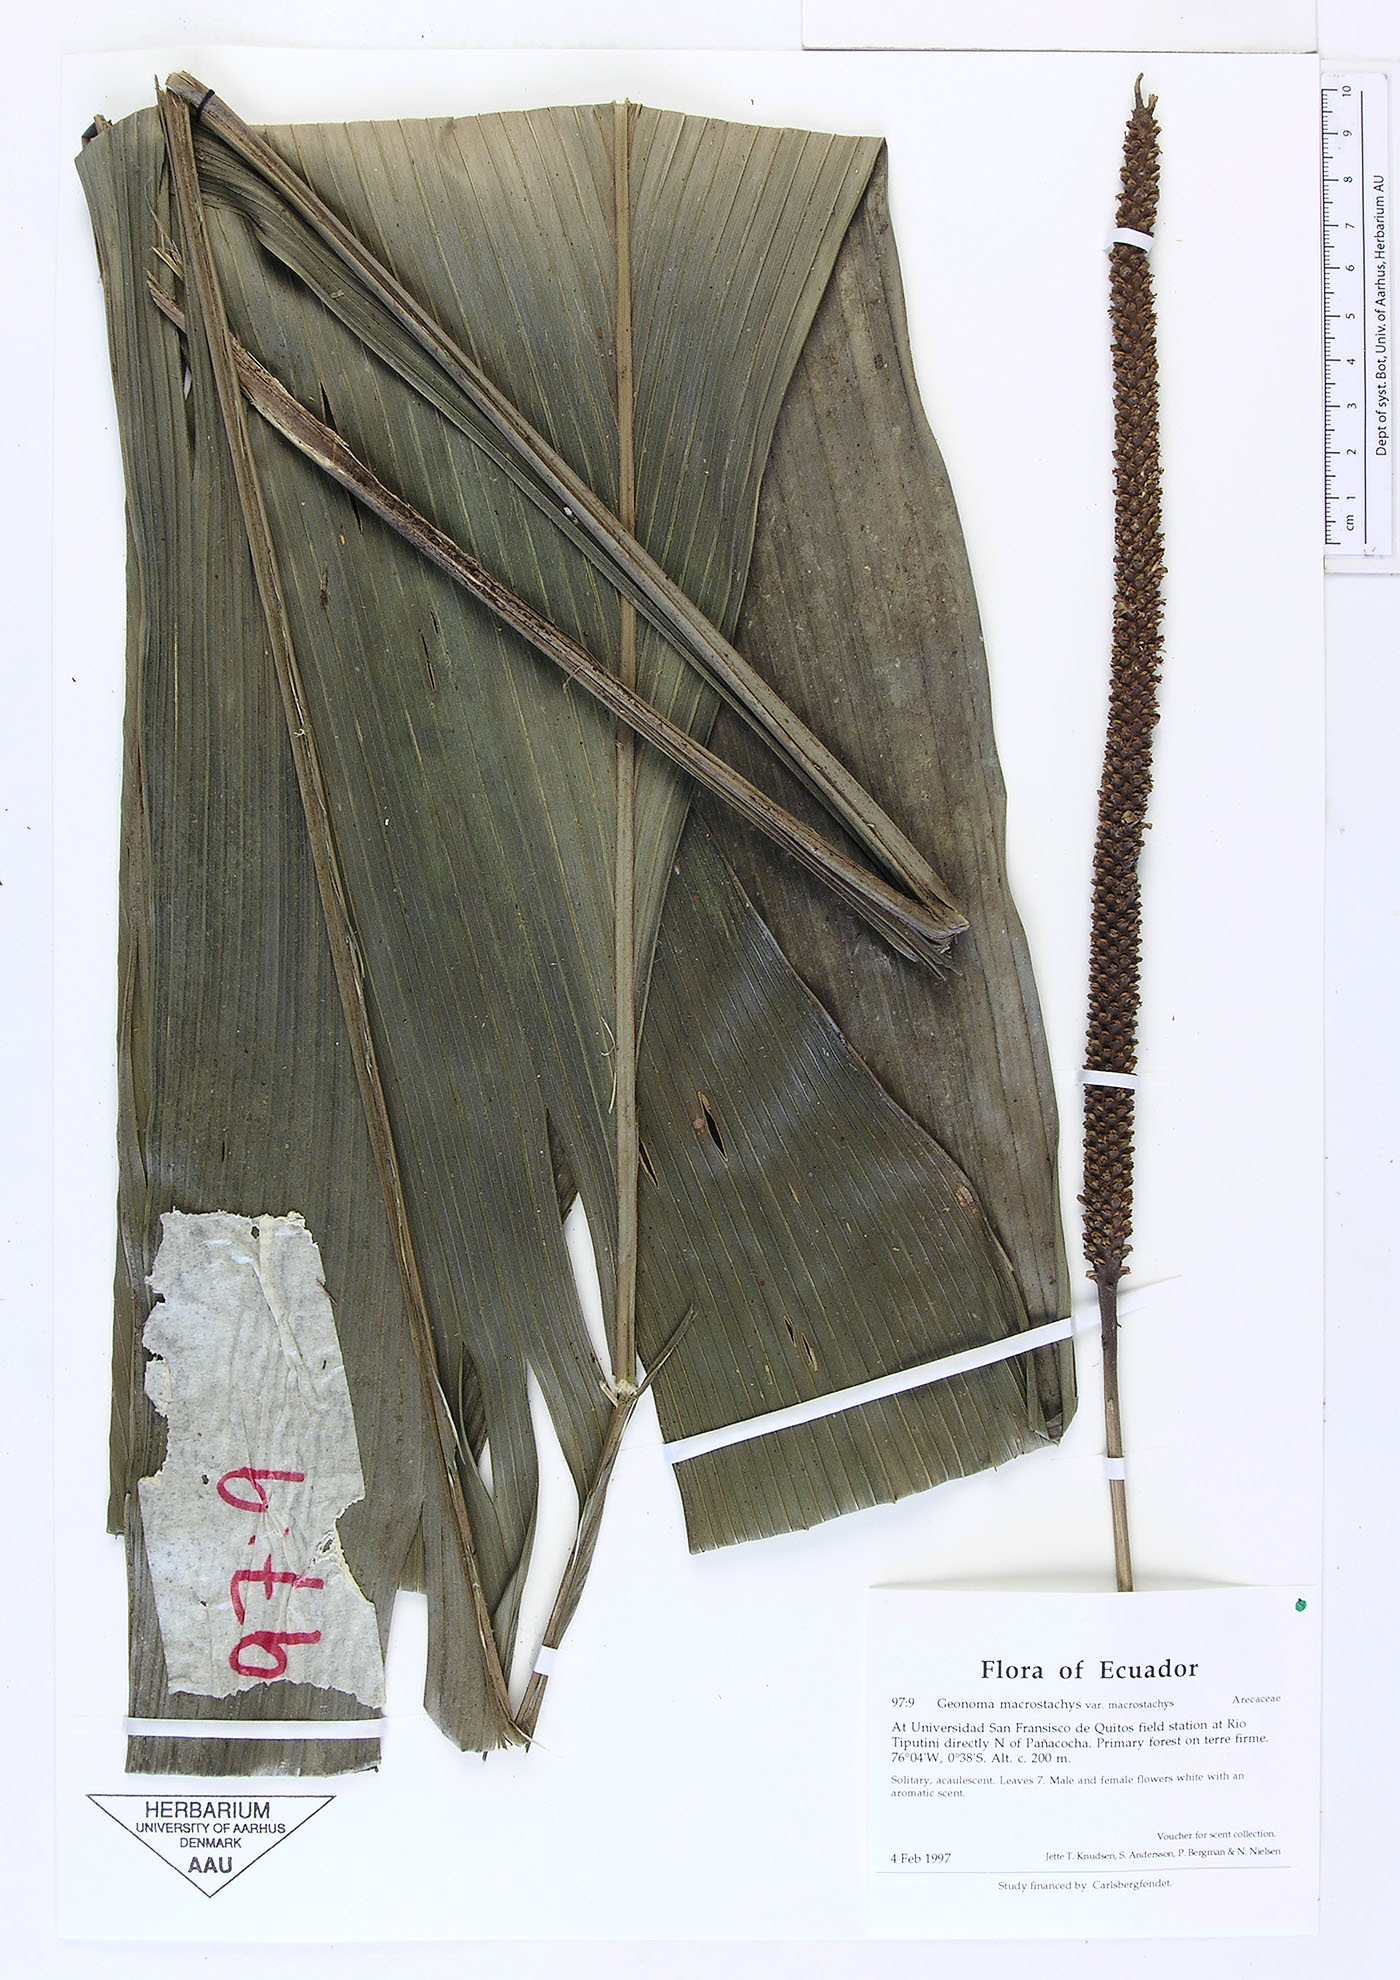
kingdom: Plantae
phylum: Tracheophyta
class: Liliopsida
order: Arecales
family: Arecaceae
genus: Geonoma
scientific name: Geonoma macrostachys
